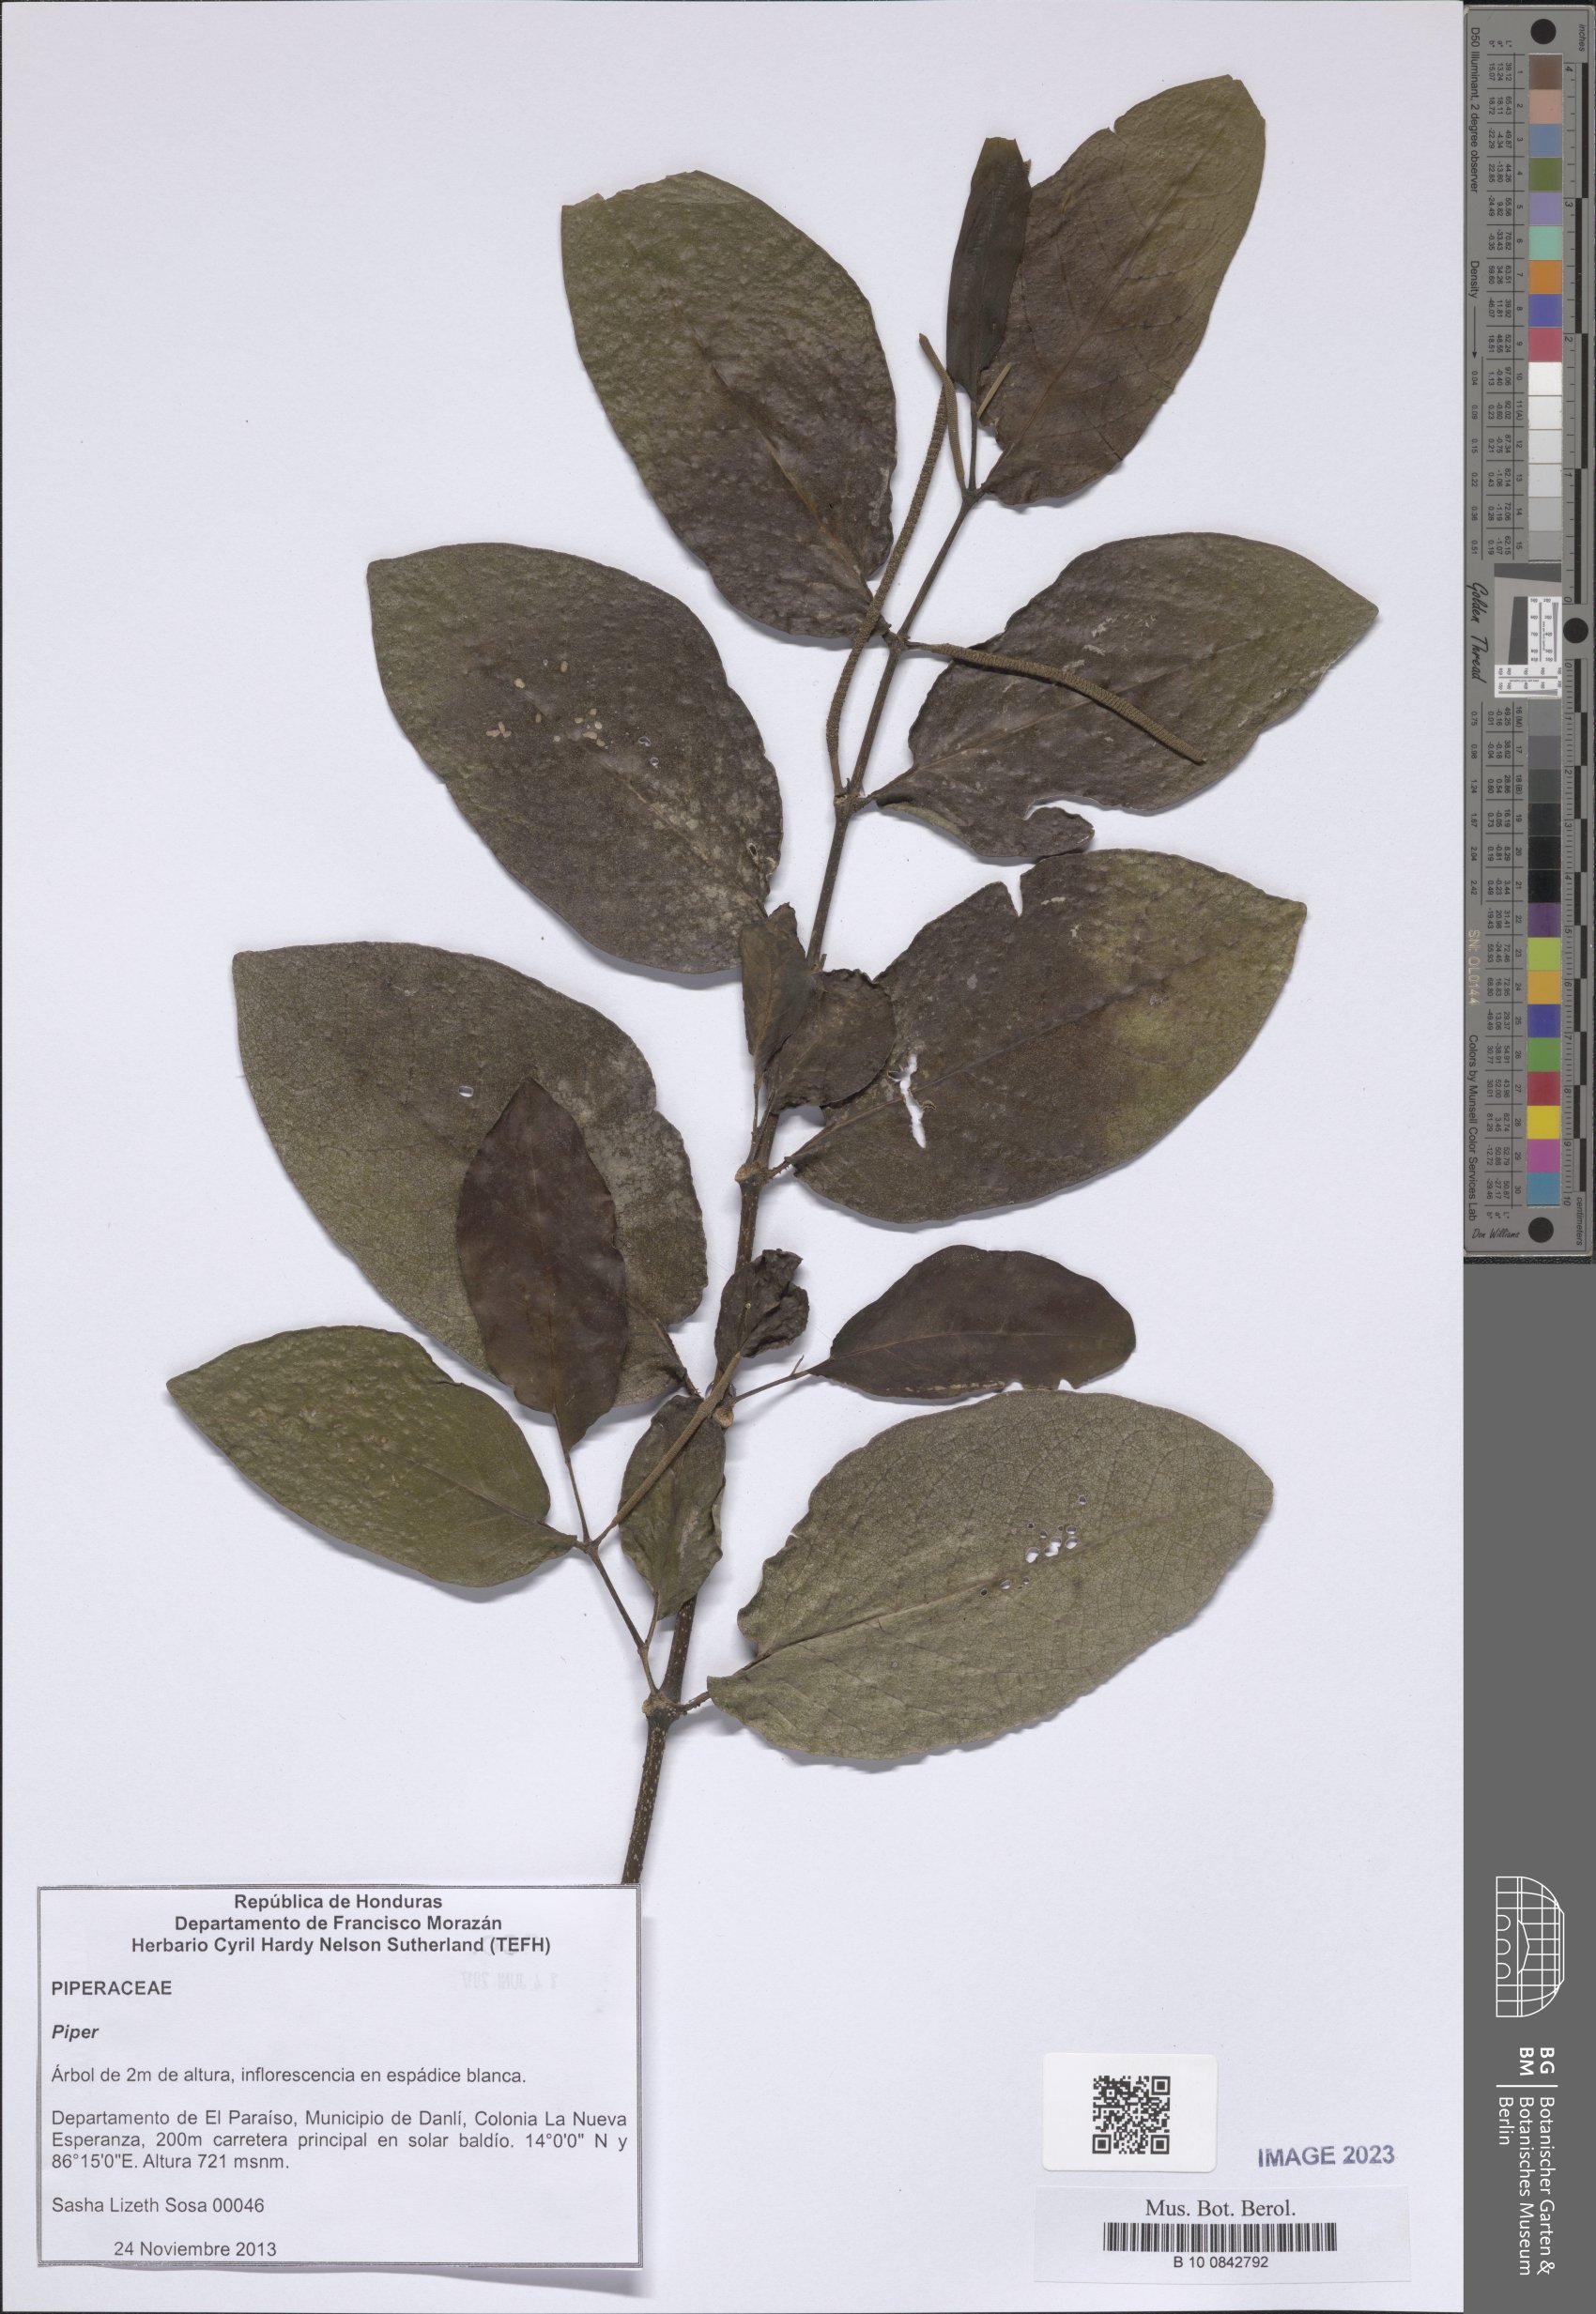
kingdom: Plantae
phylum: Tracheophyta
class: Magnoliopsida
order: Piperales
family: Piperaceae
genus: Piper
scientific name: Piper
